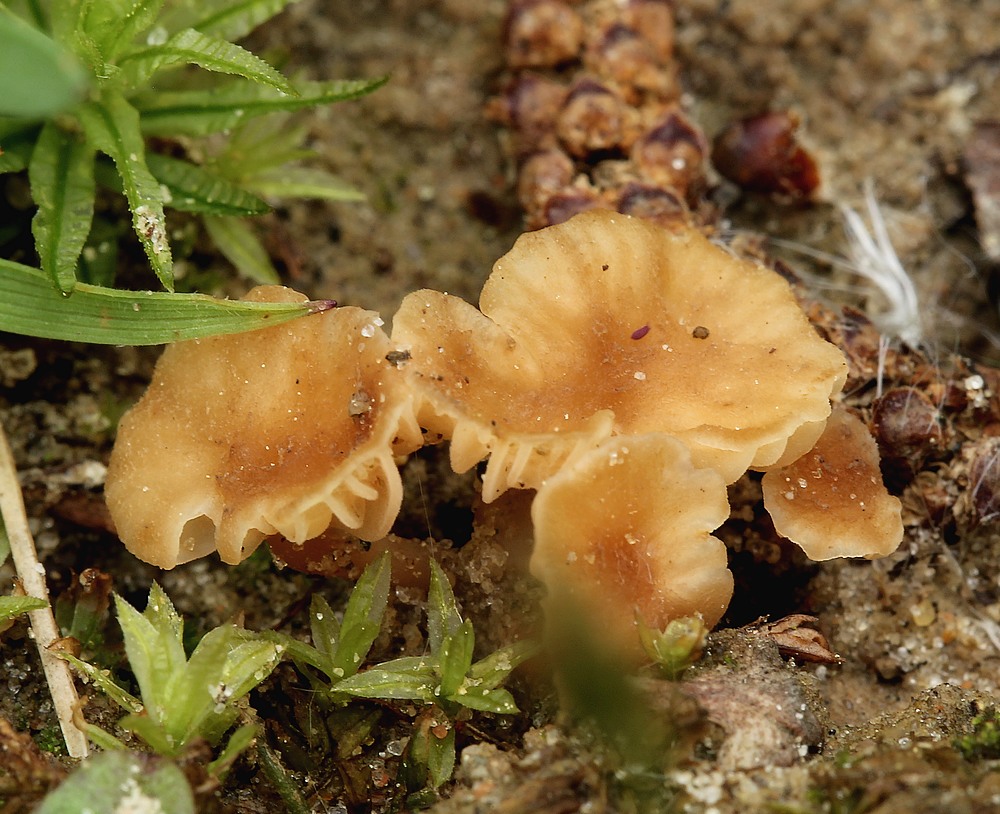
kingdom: Fungi
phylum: Basidiomycota
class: Agaricomycetes
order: Agaricales
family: Hydnangiaceae
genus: Laccaria
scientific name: Laccaria tortilis
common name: krybende ametysthat
